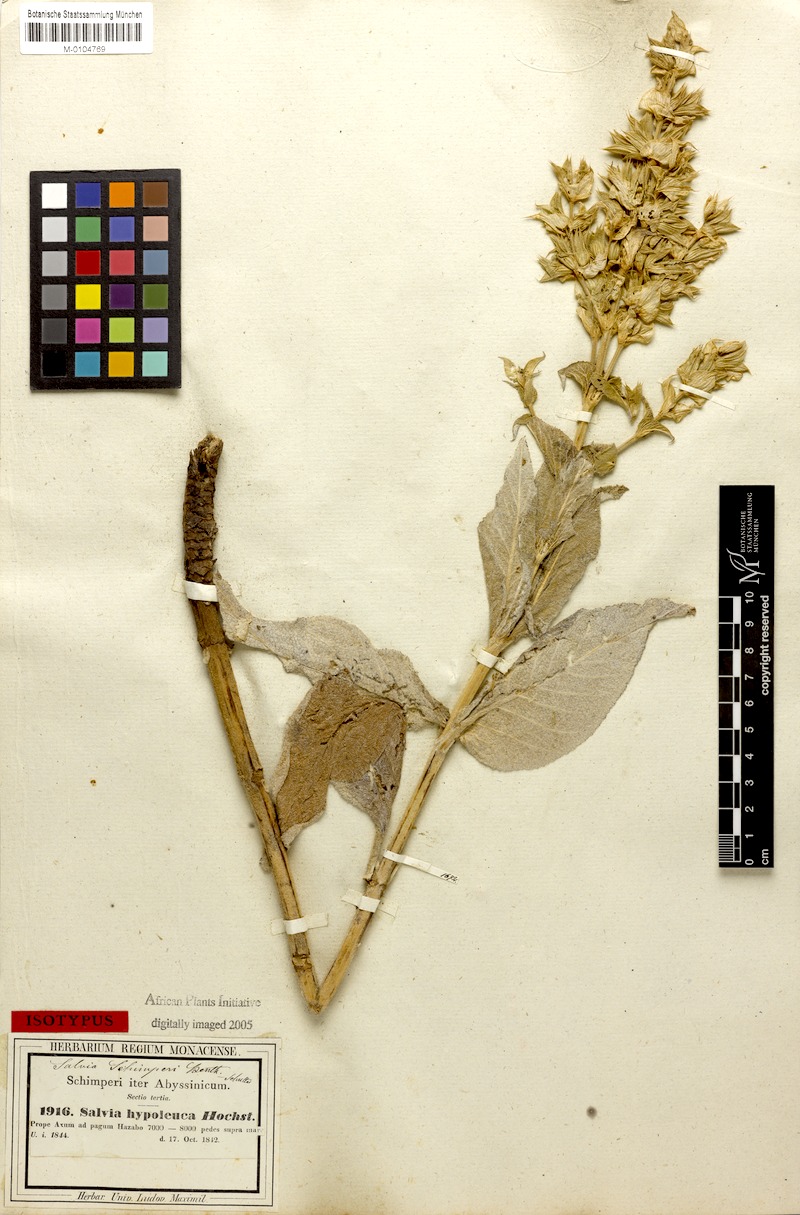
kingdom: Plantae
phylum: Tracheophyta
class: Magnoliopsida
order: Lamiales
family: Lamiaceae
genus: Salvia
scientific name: Salvia hypoleuca
